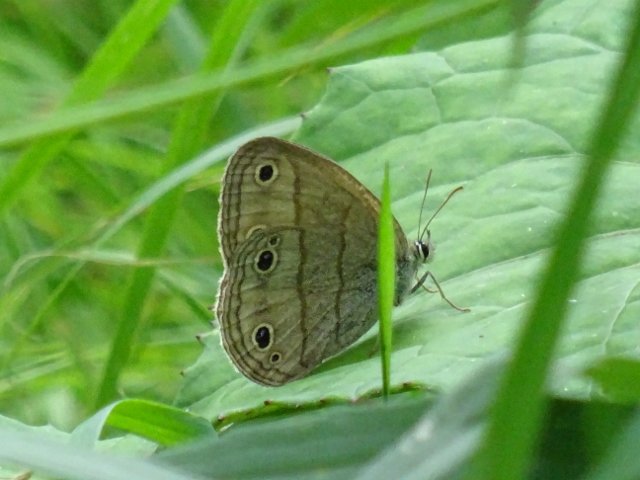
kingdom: Animalia
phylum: Arthropoda
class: Insecta
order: Lepidoptera
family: Nymphalidae
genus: Euptychia
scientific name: Euptychia cymela
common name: Little Wood Satyr
